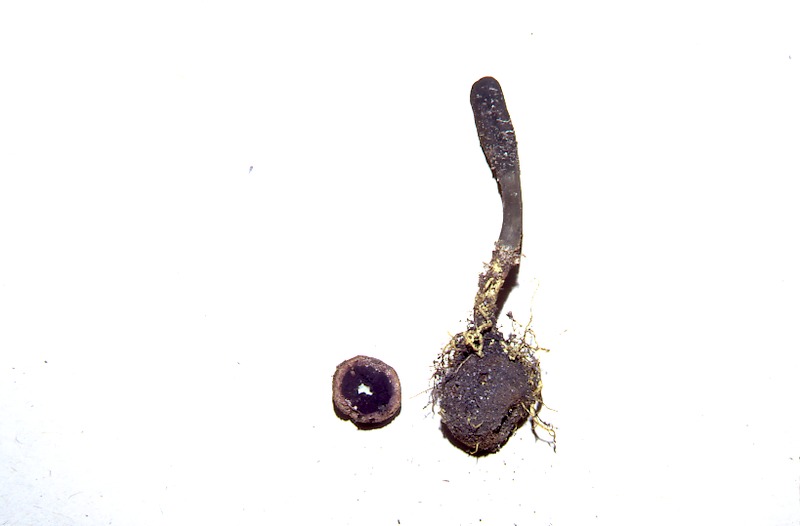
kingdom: Fungi
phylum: Ascomycota
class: Eurotiomycetes
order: Eurotiales
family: Elaphomycetaceae
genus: Elaphomyces
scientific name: Elaphomyces muricatus
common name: Marbled false truffle
